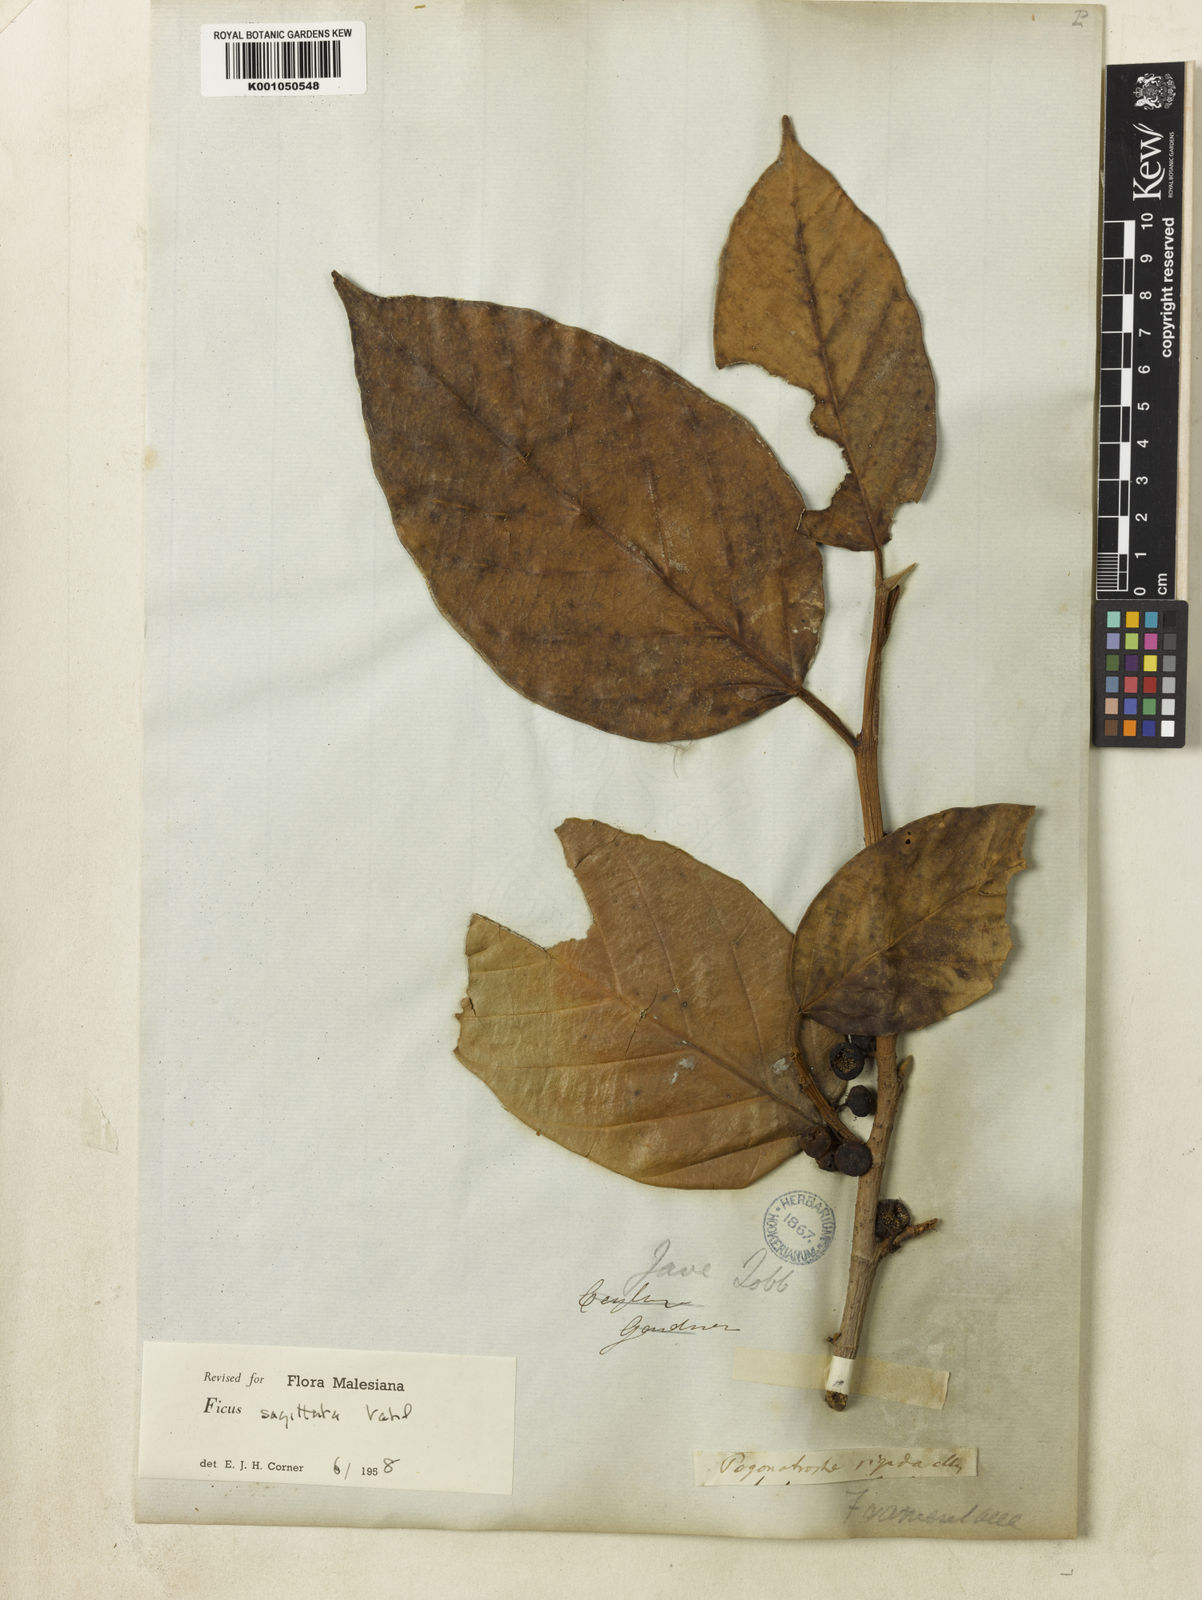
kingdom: Plantae
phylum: Tracheophyta
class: Magnoliopsida
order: Rosales
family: Moraceae
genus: Ficus
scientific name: Ficus sagittata
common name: Trailing fig
